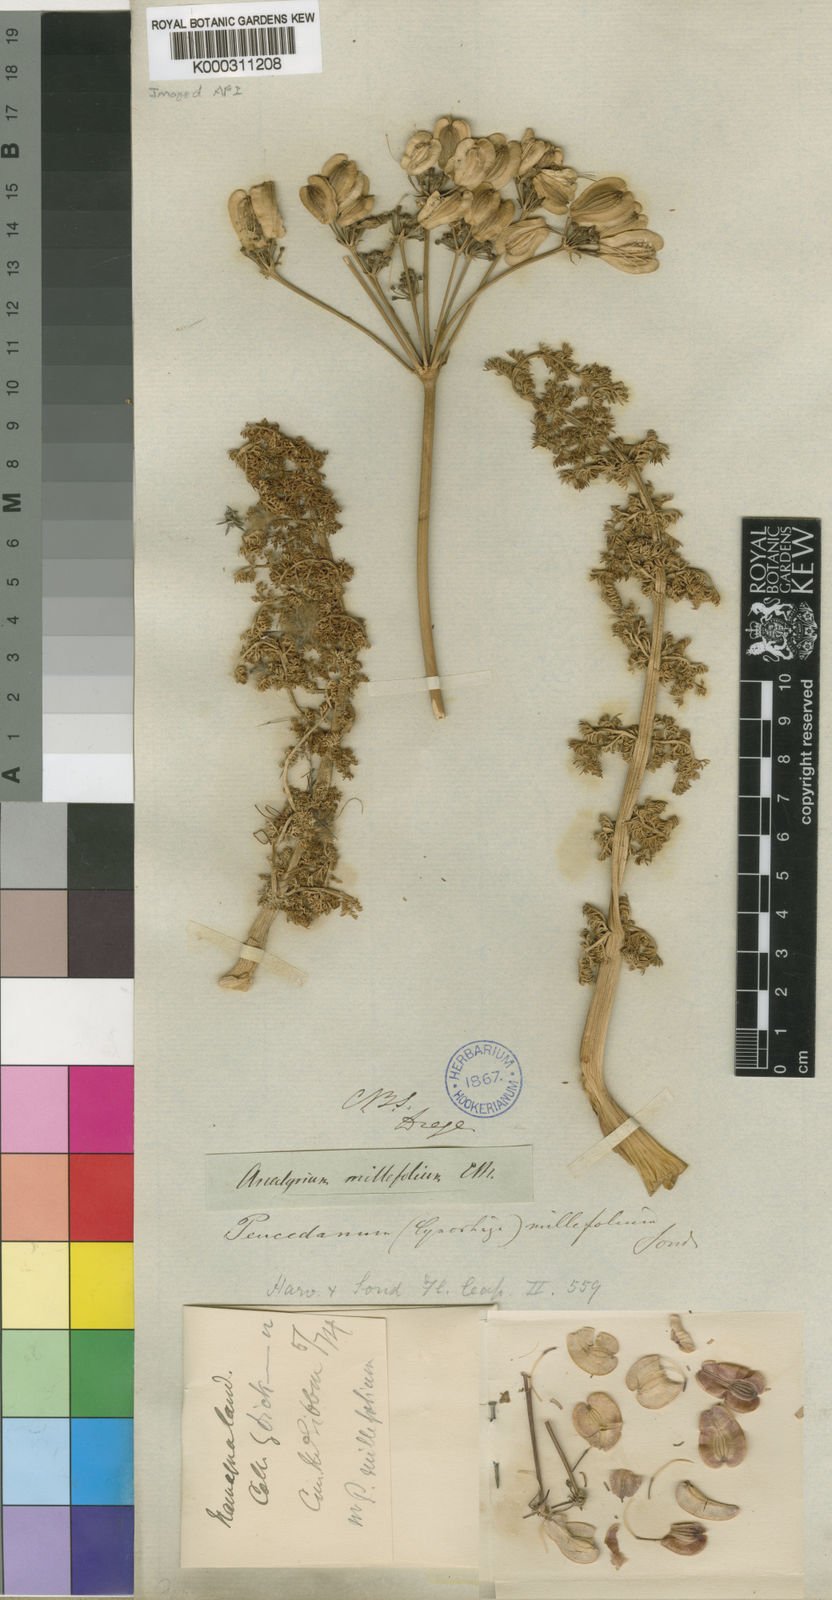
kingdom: Plantae
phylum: Tracheophyta
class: Magnoliopsida
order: Apiales
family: Apiaceae
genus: Cynorhiza
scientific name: Cynorhiza meifolia
